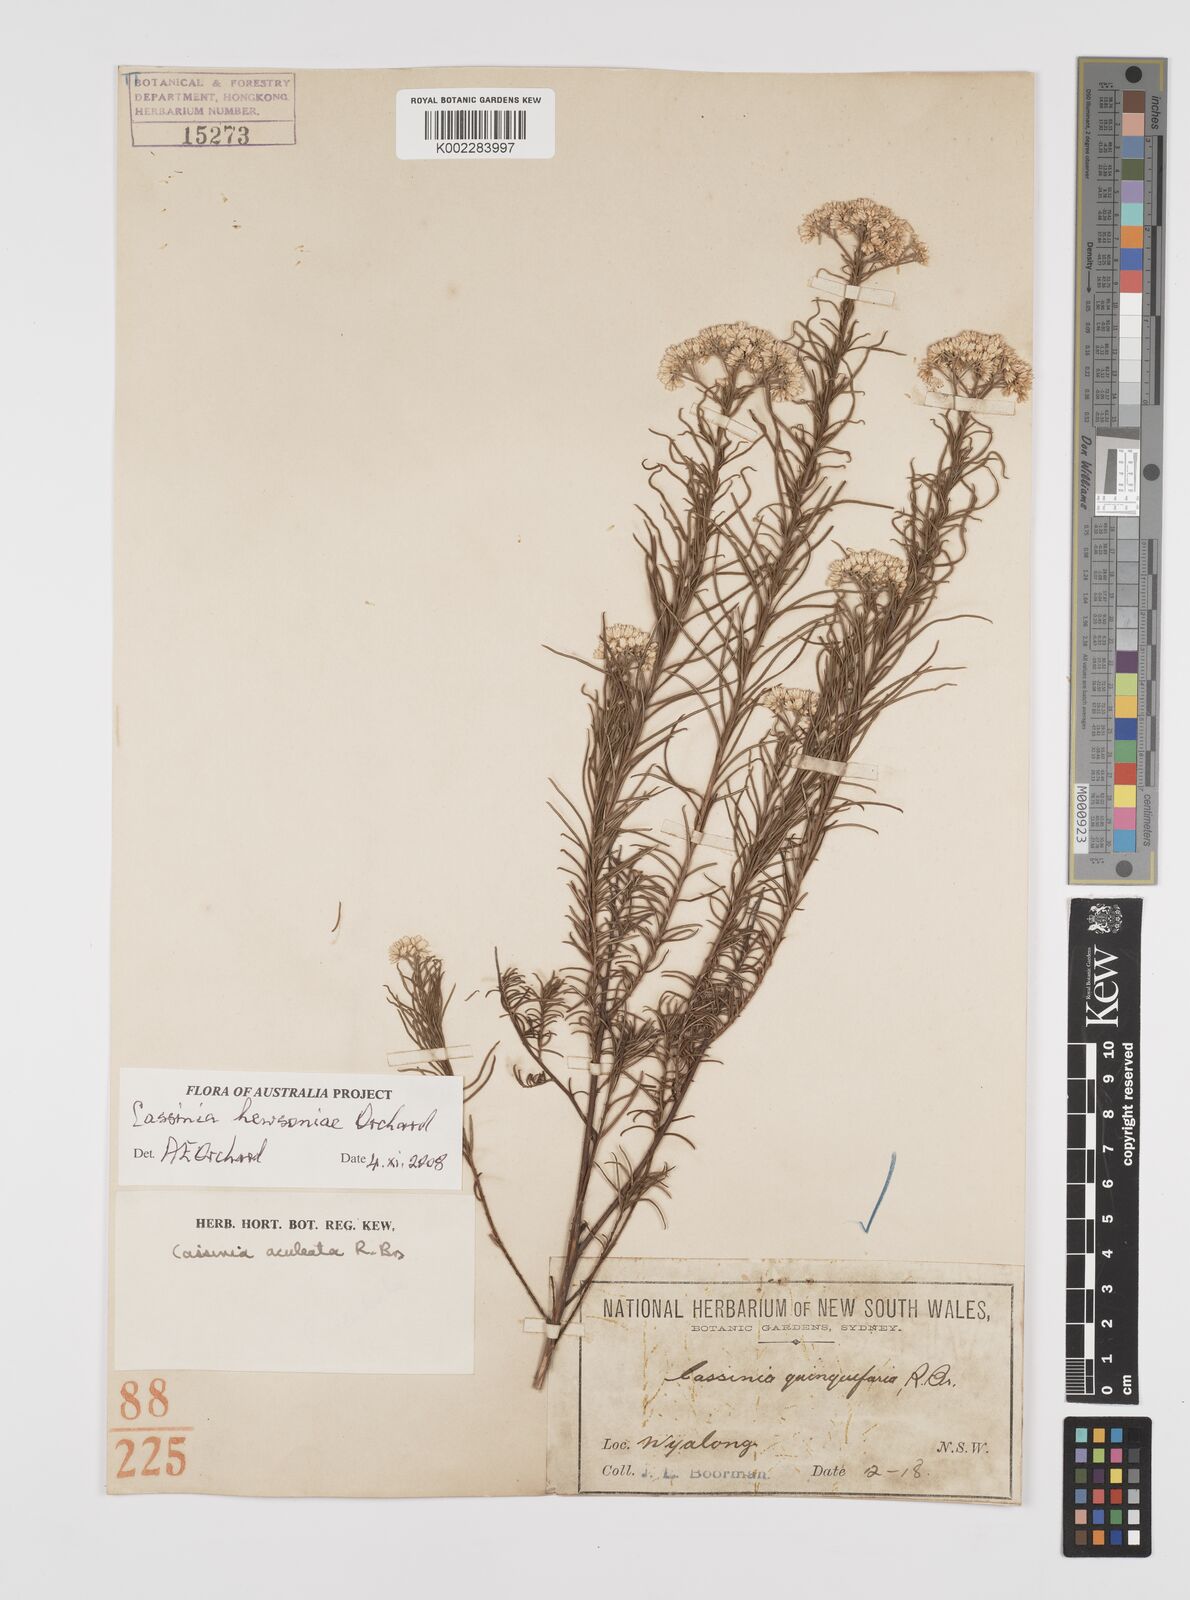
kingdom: Plantae
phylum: Tracheophyta
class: Magnoliopsida
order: Asterales
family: Asteraceae
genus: Cassinia
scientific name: Cassinia hewsoniae
